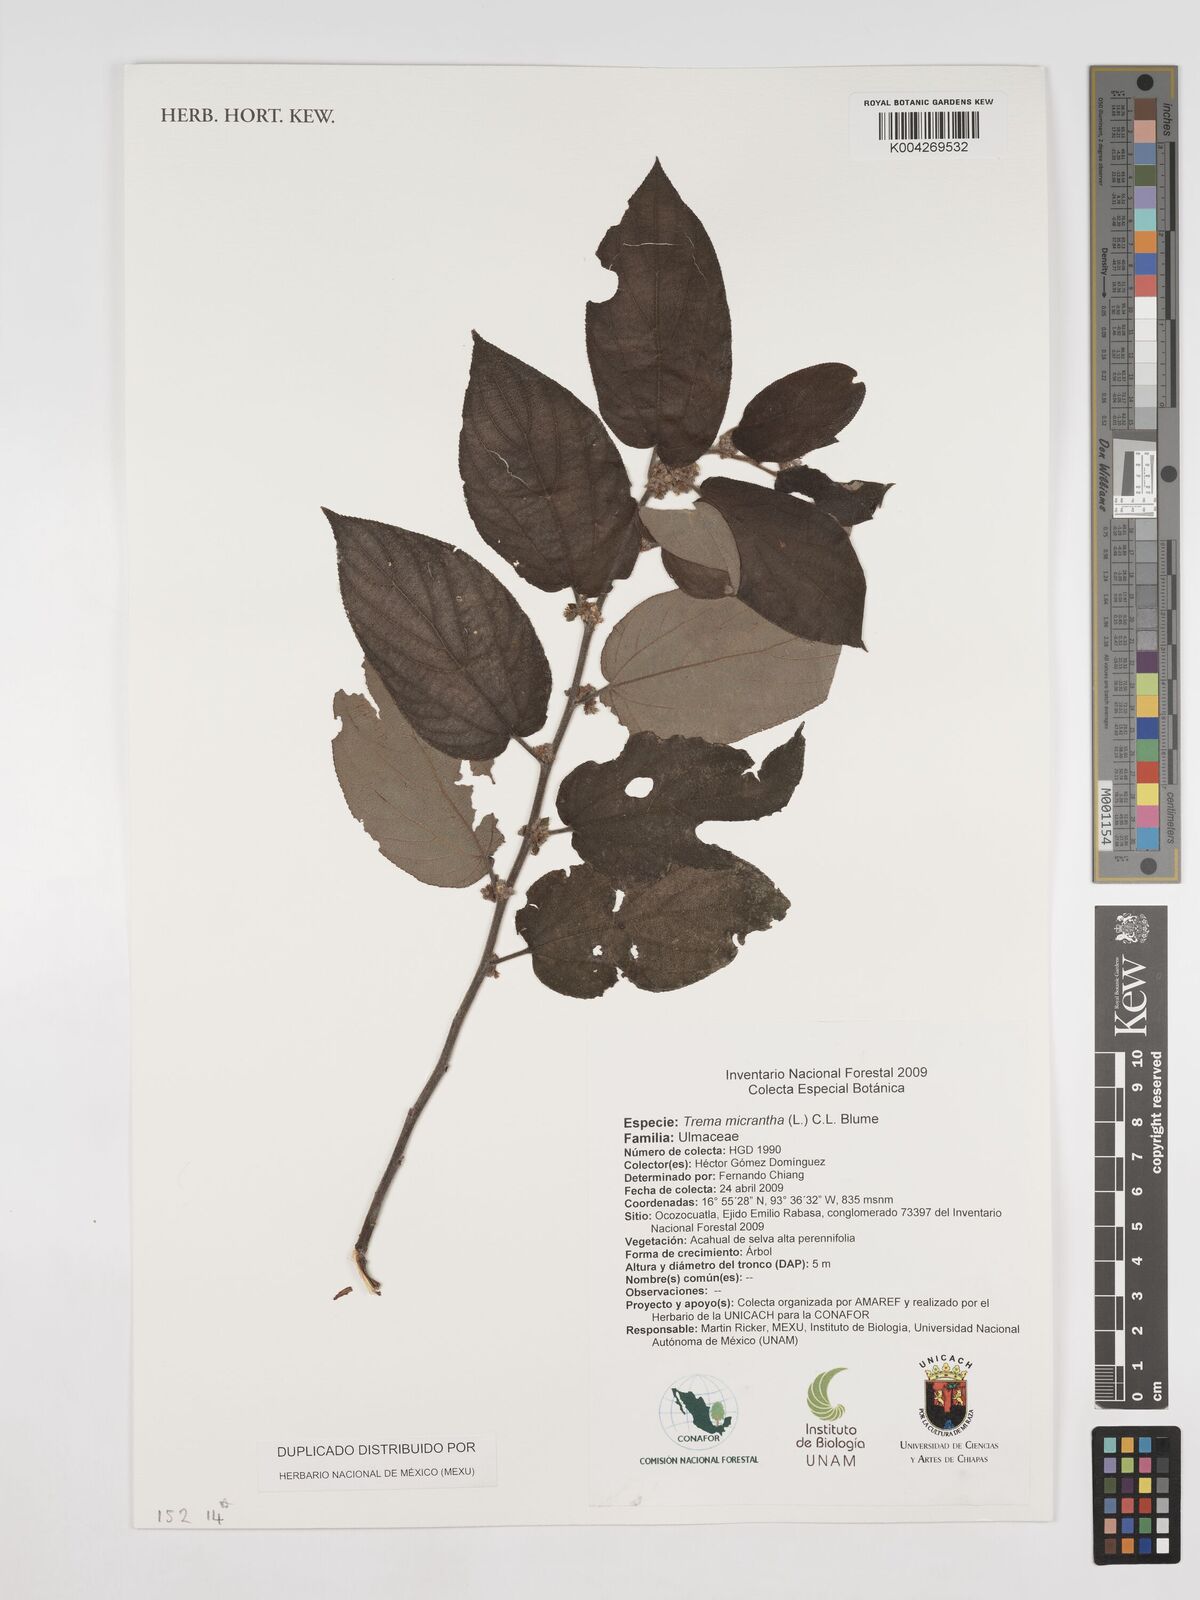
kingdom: Plantae
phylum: Tracheophyta
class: Magnoliopsida
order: Rosales
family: Cannabaceae
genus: Trema
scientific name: Trema micranthum
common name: Jamaican nettletree
